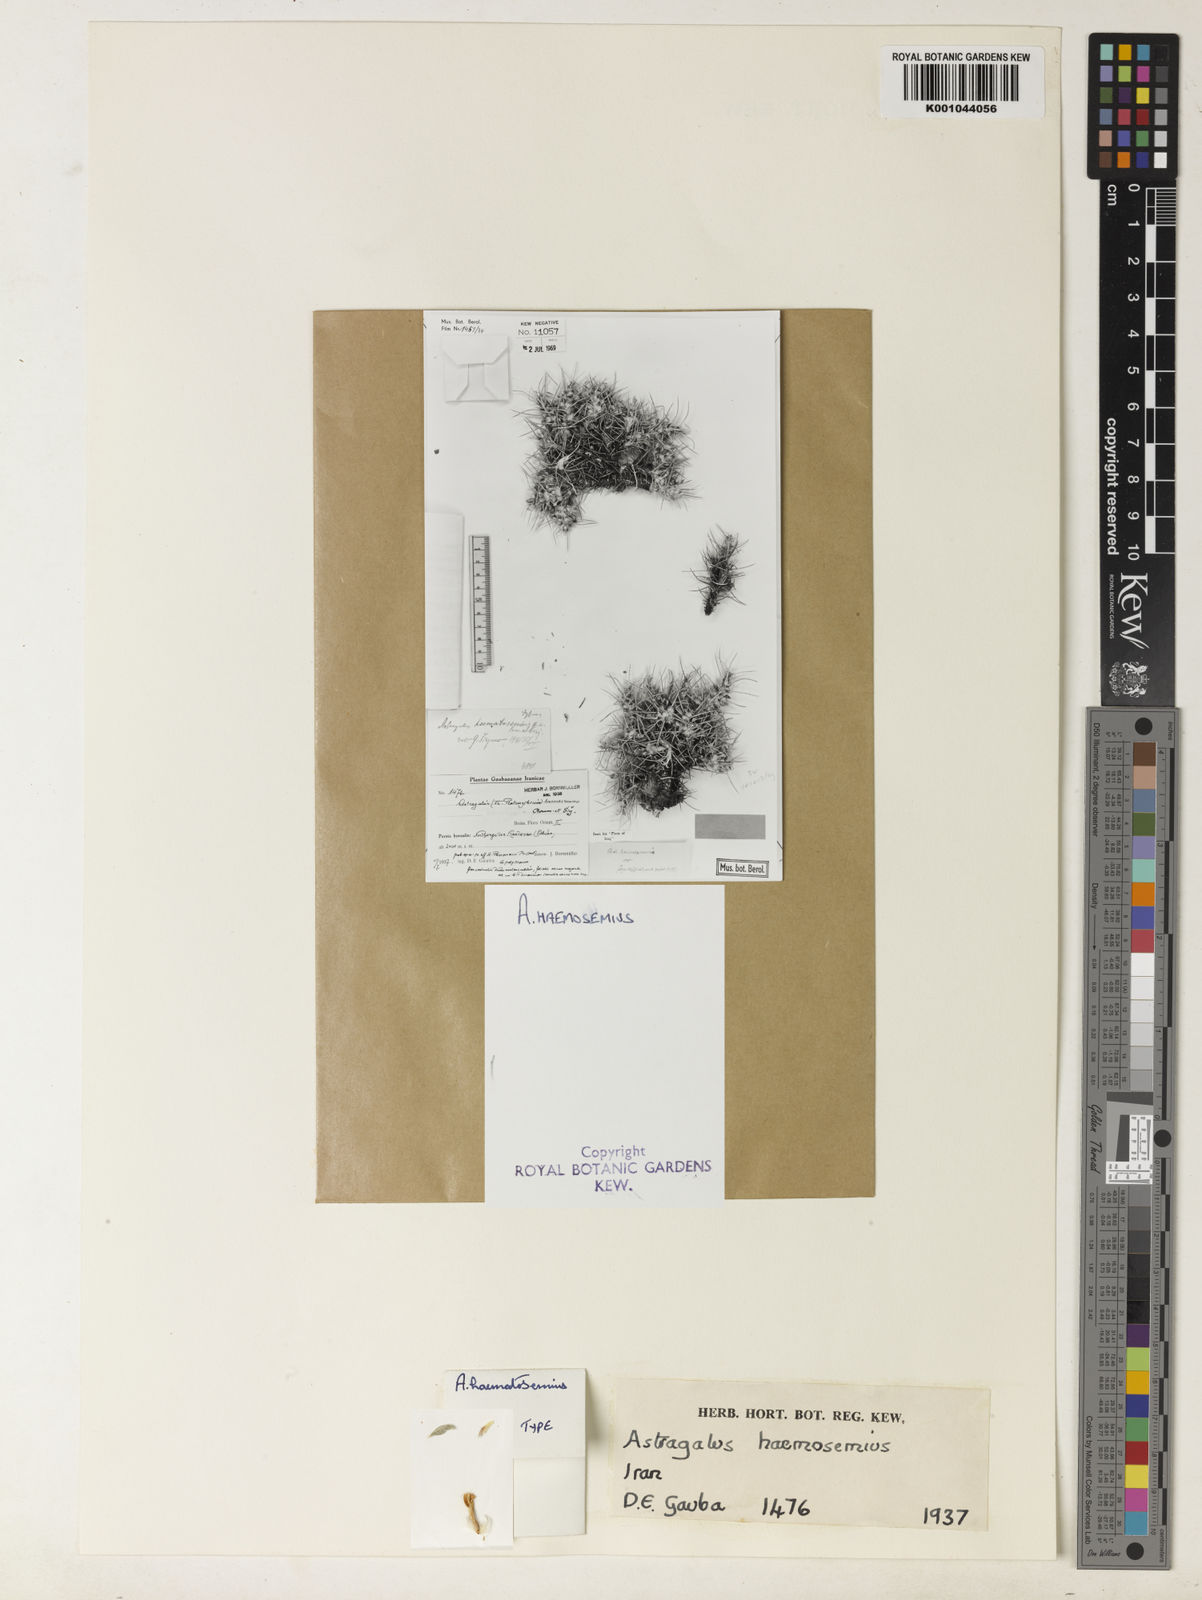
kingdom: Plantae
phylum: Tracheophyta
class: Magnoliopsida
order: Fabales
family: Fabaceae
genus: Astragalus
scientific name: Astragalus floccosus
